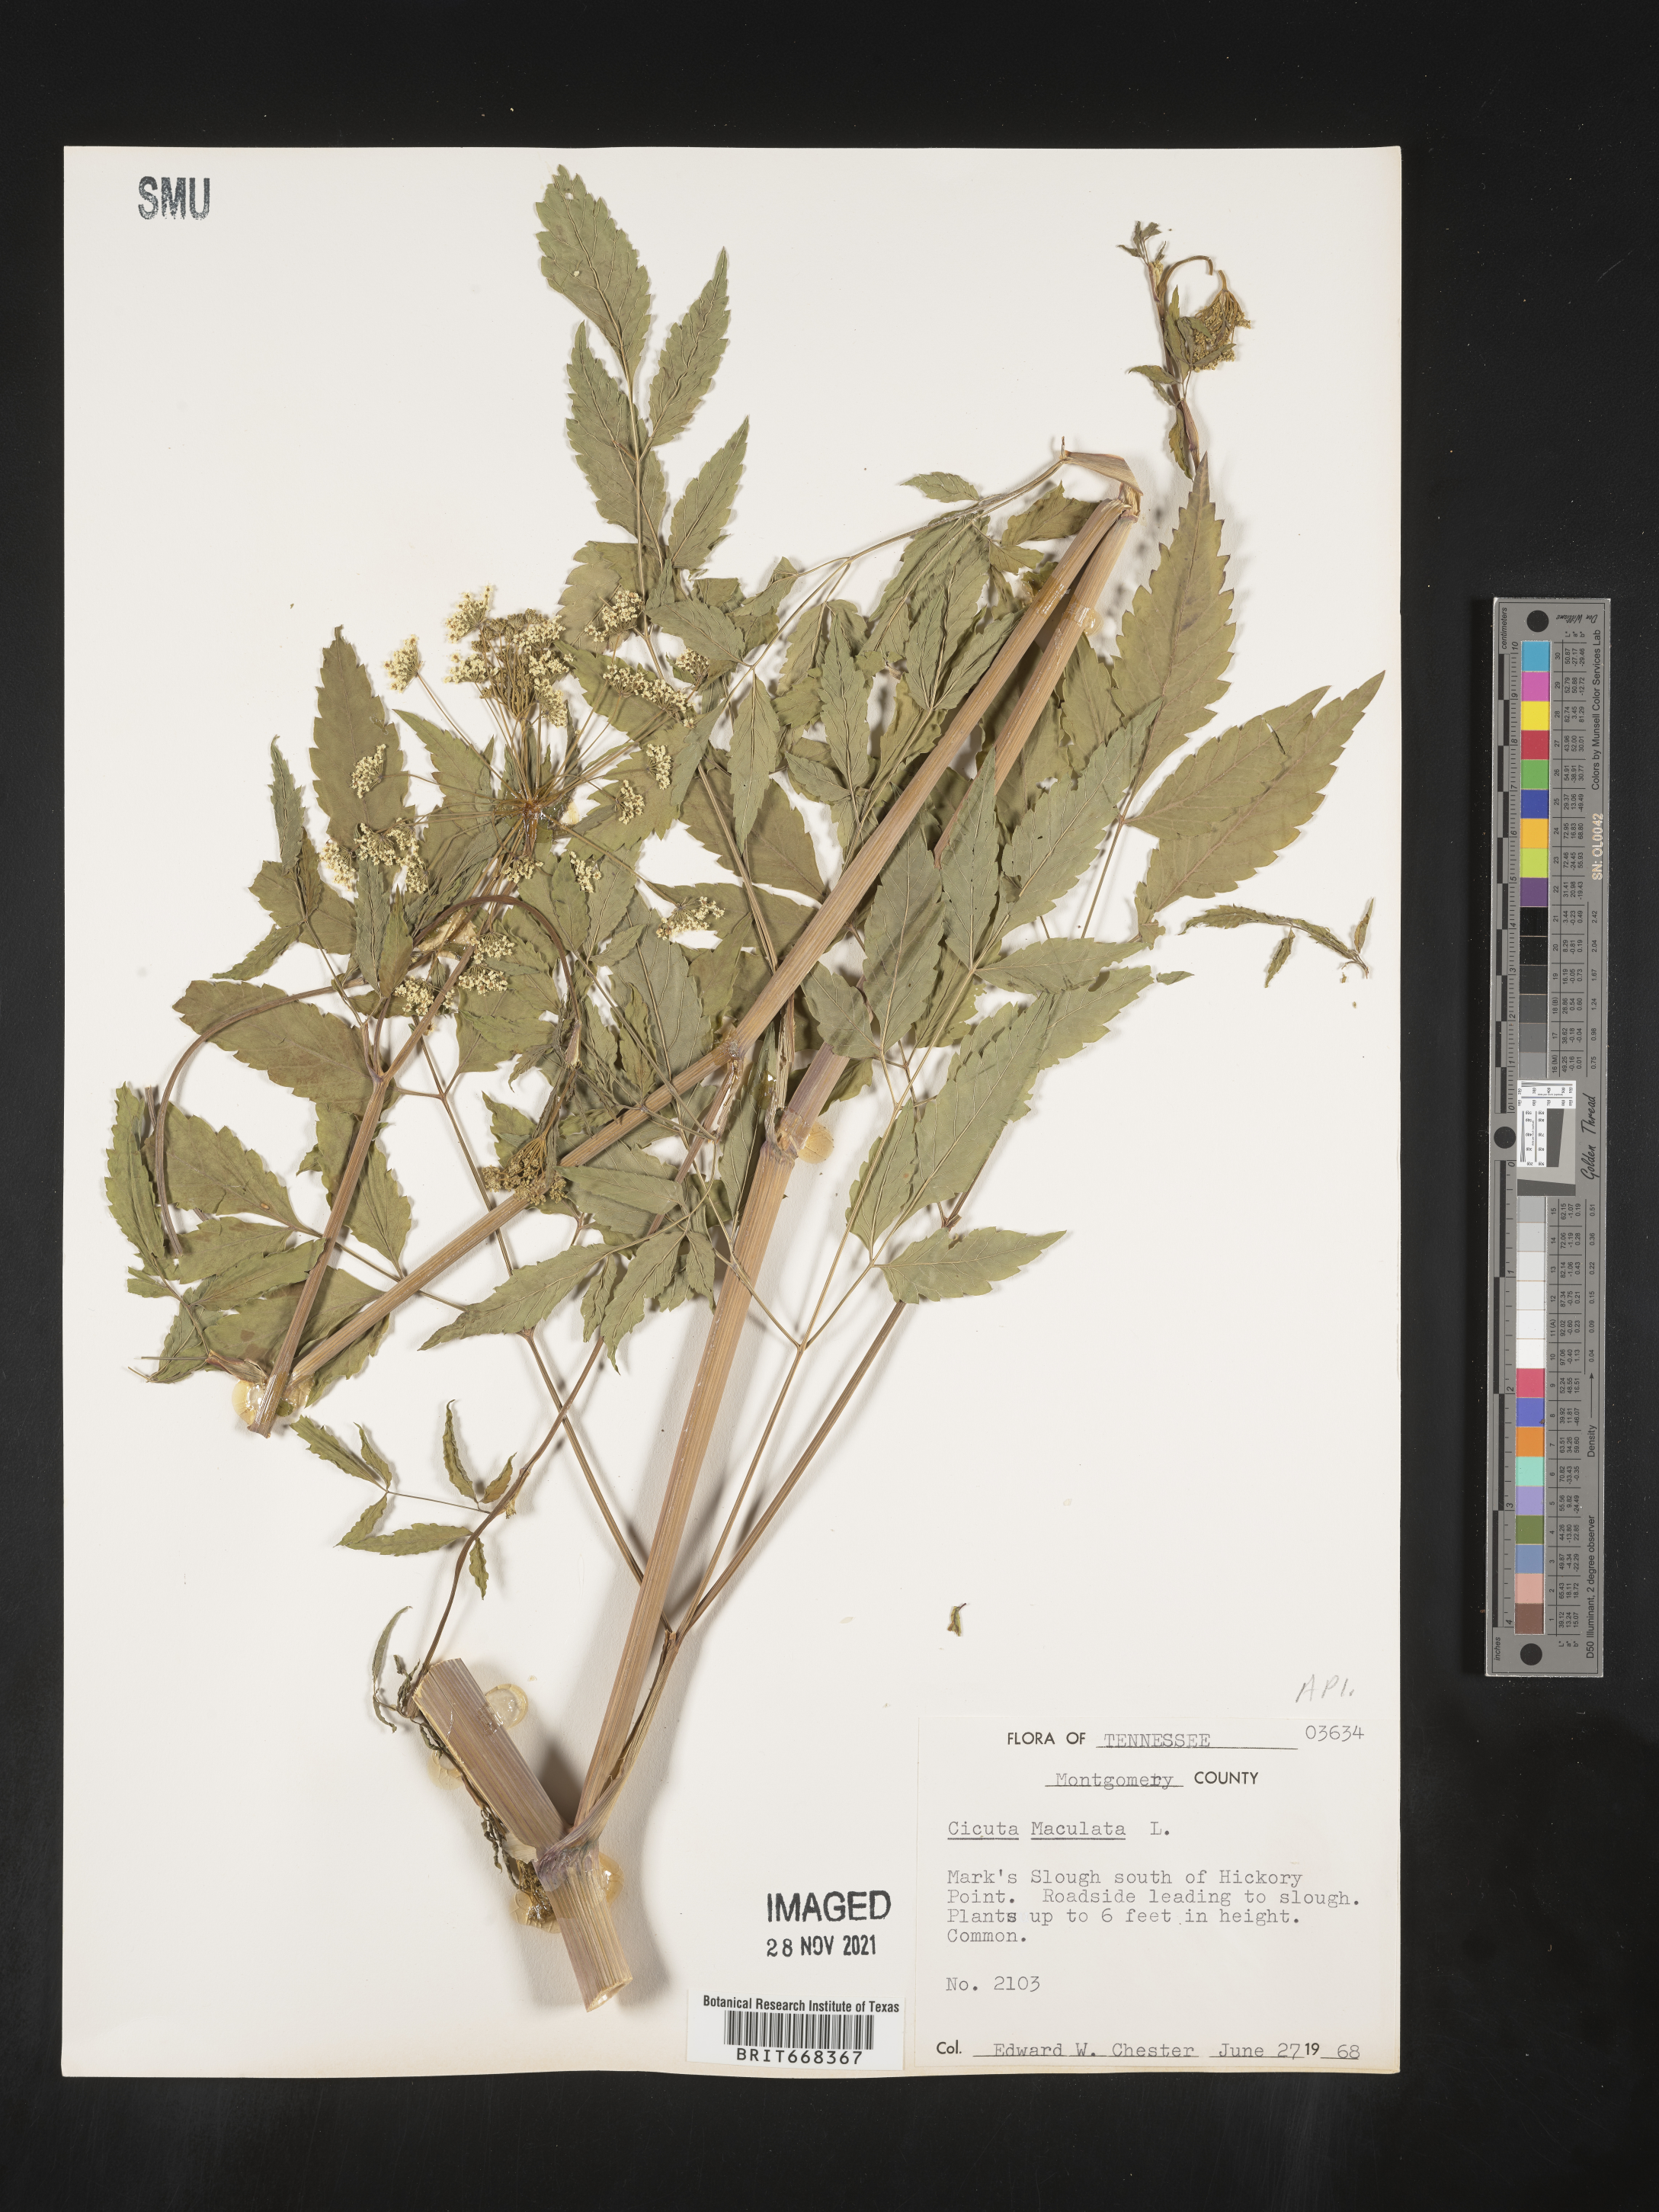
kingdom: Plantae
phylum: Tracheophyta
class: Magnoliopsida
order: Apiales
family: Apiaceae
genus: Cicuta
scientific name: Cicuta maculata
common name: Spotted cowbane
